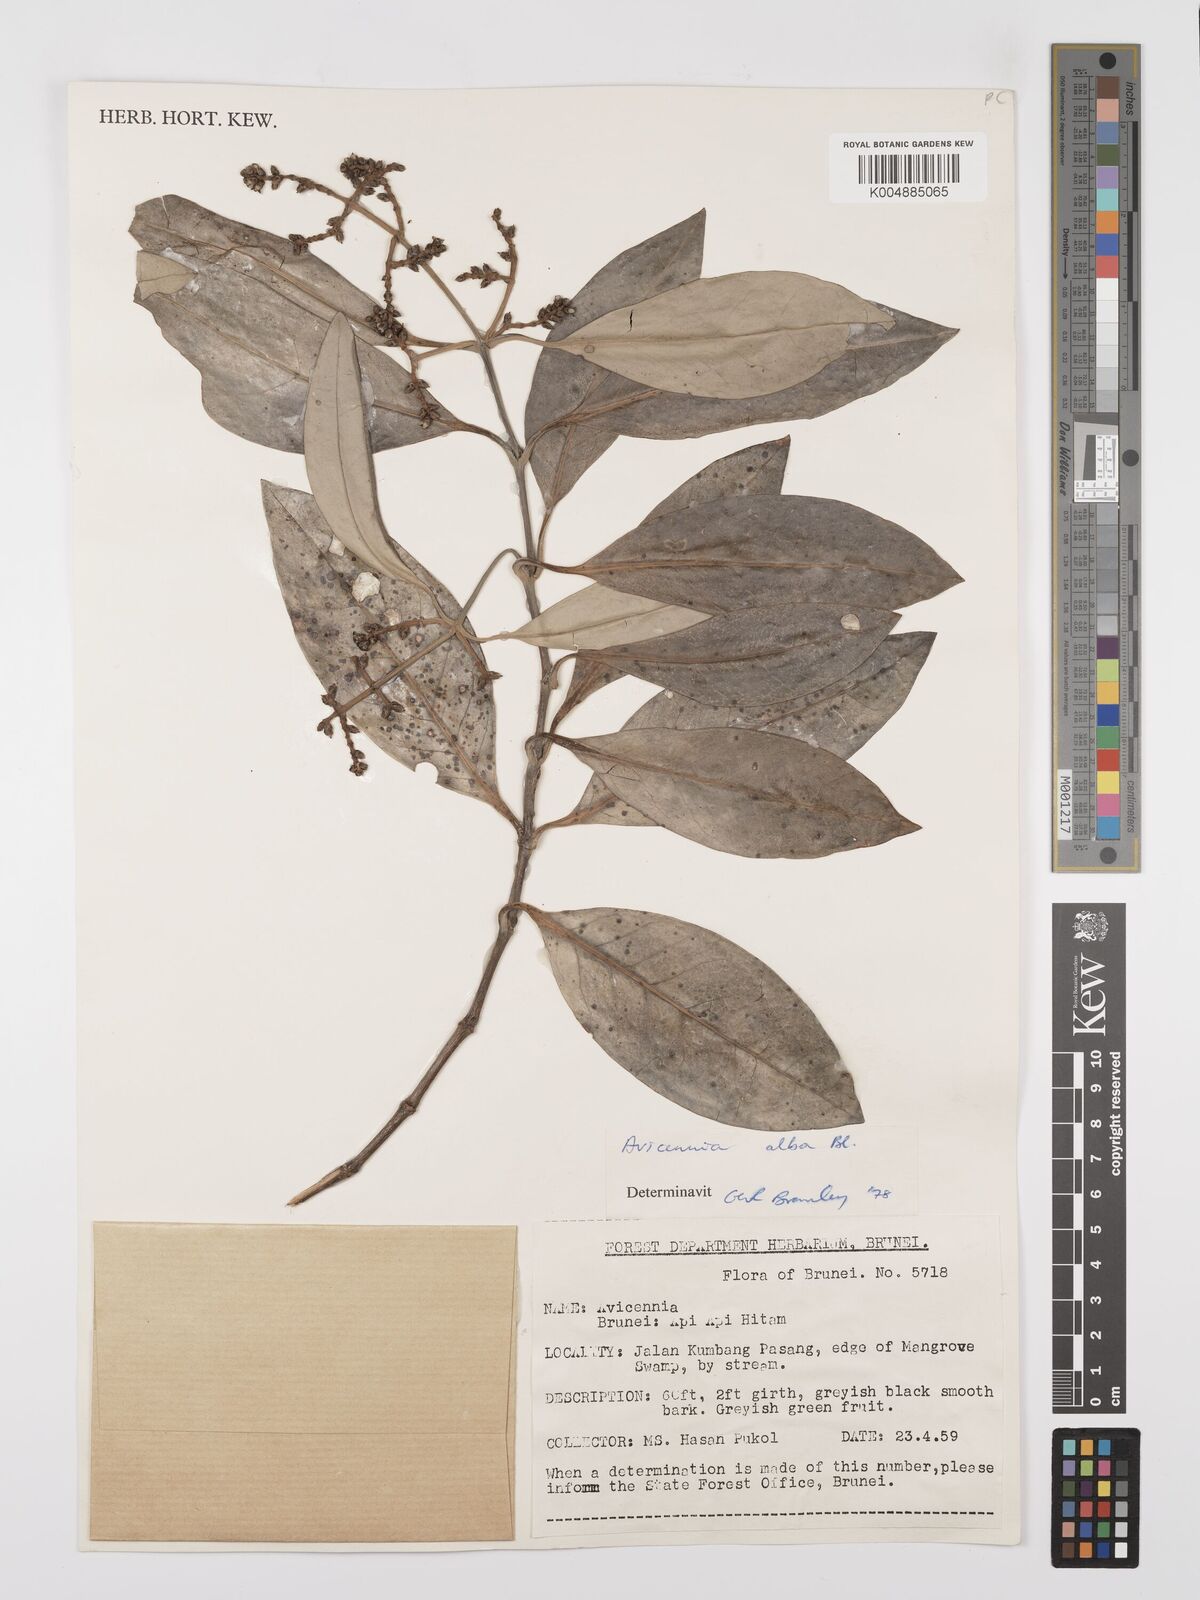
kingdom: Plantae
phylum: Tracheophyta
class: Magnoliopsida
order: Lamiales
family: Acanthaceae
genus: Avicennia
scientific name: Avicennia alba
